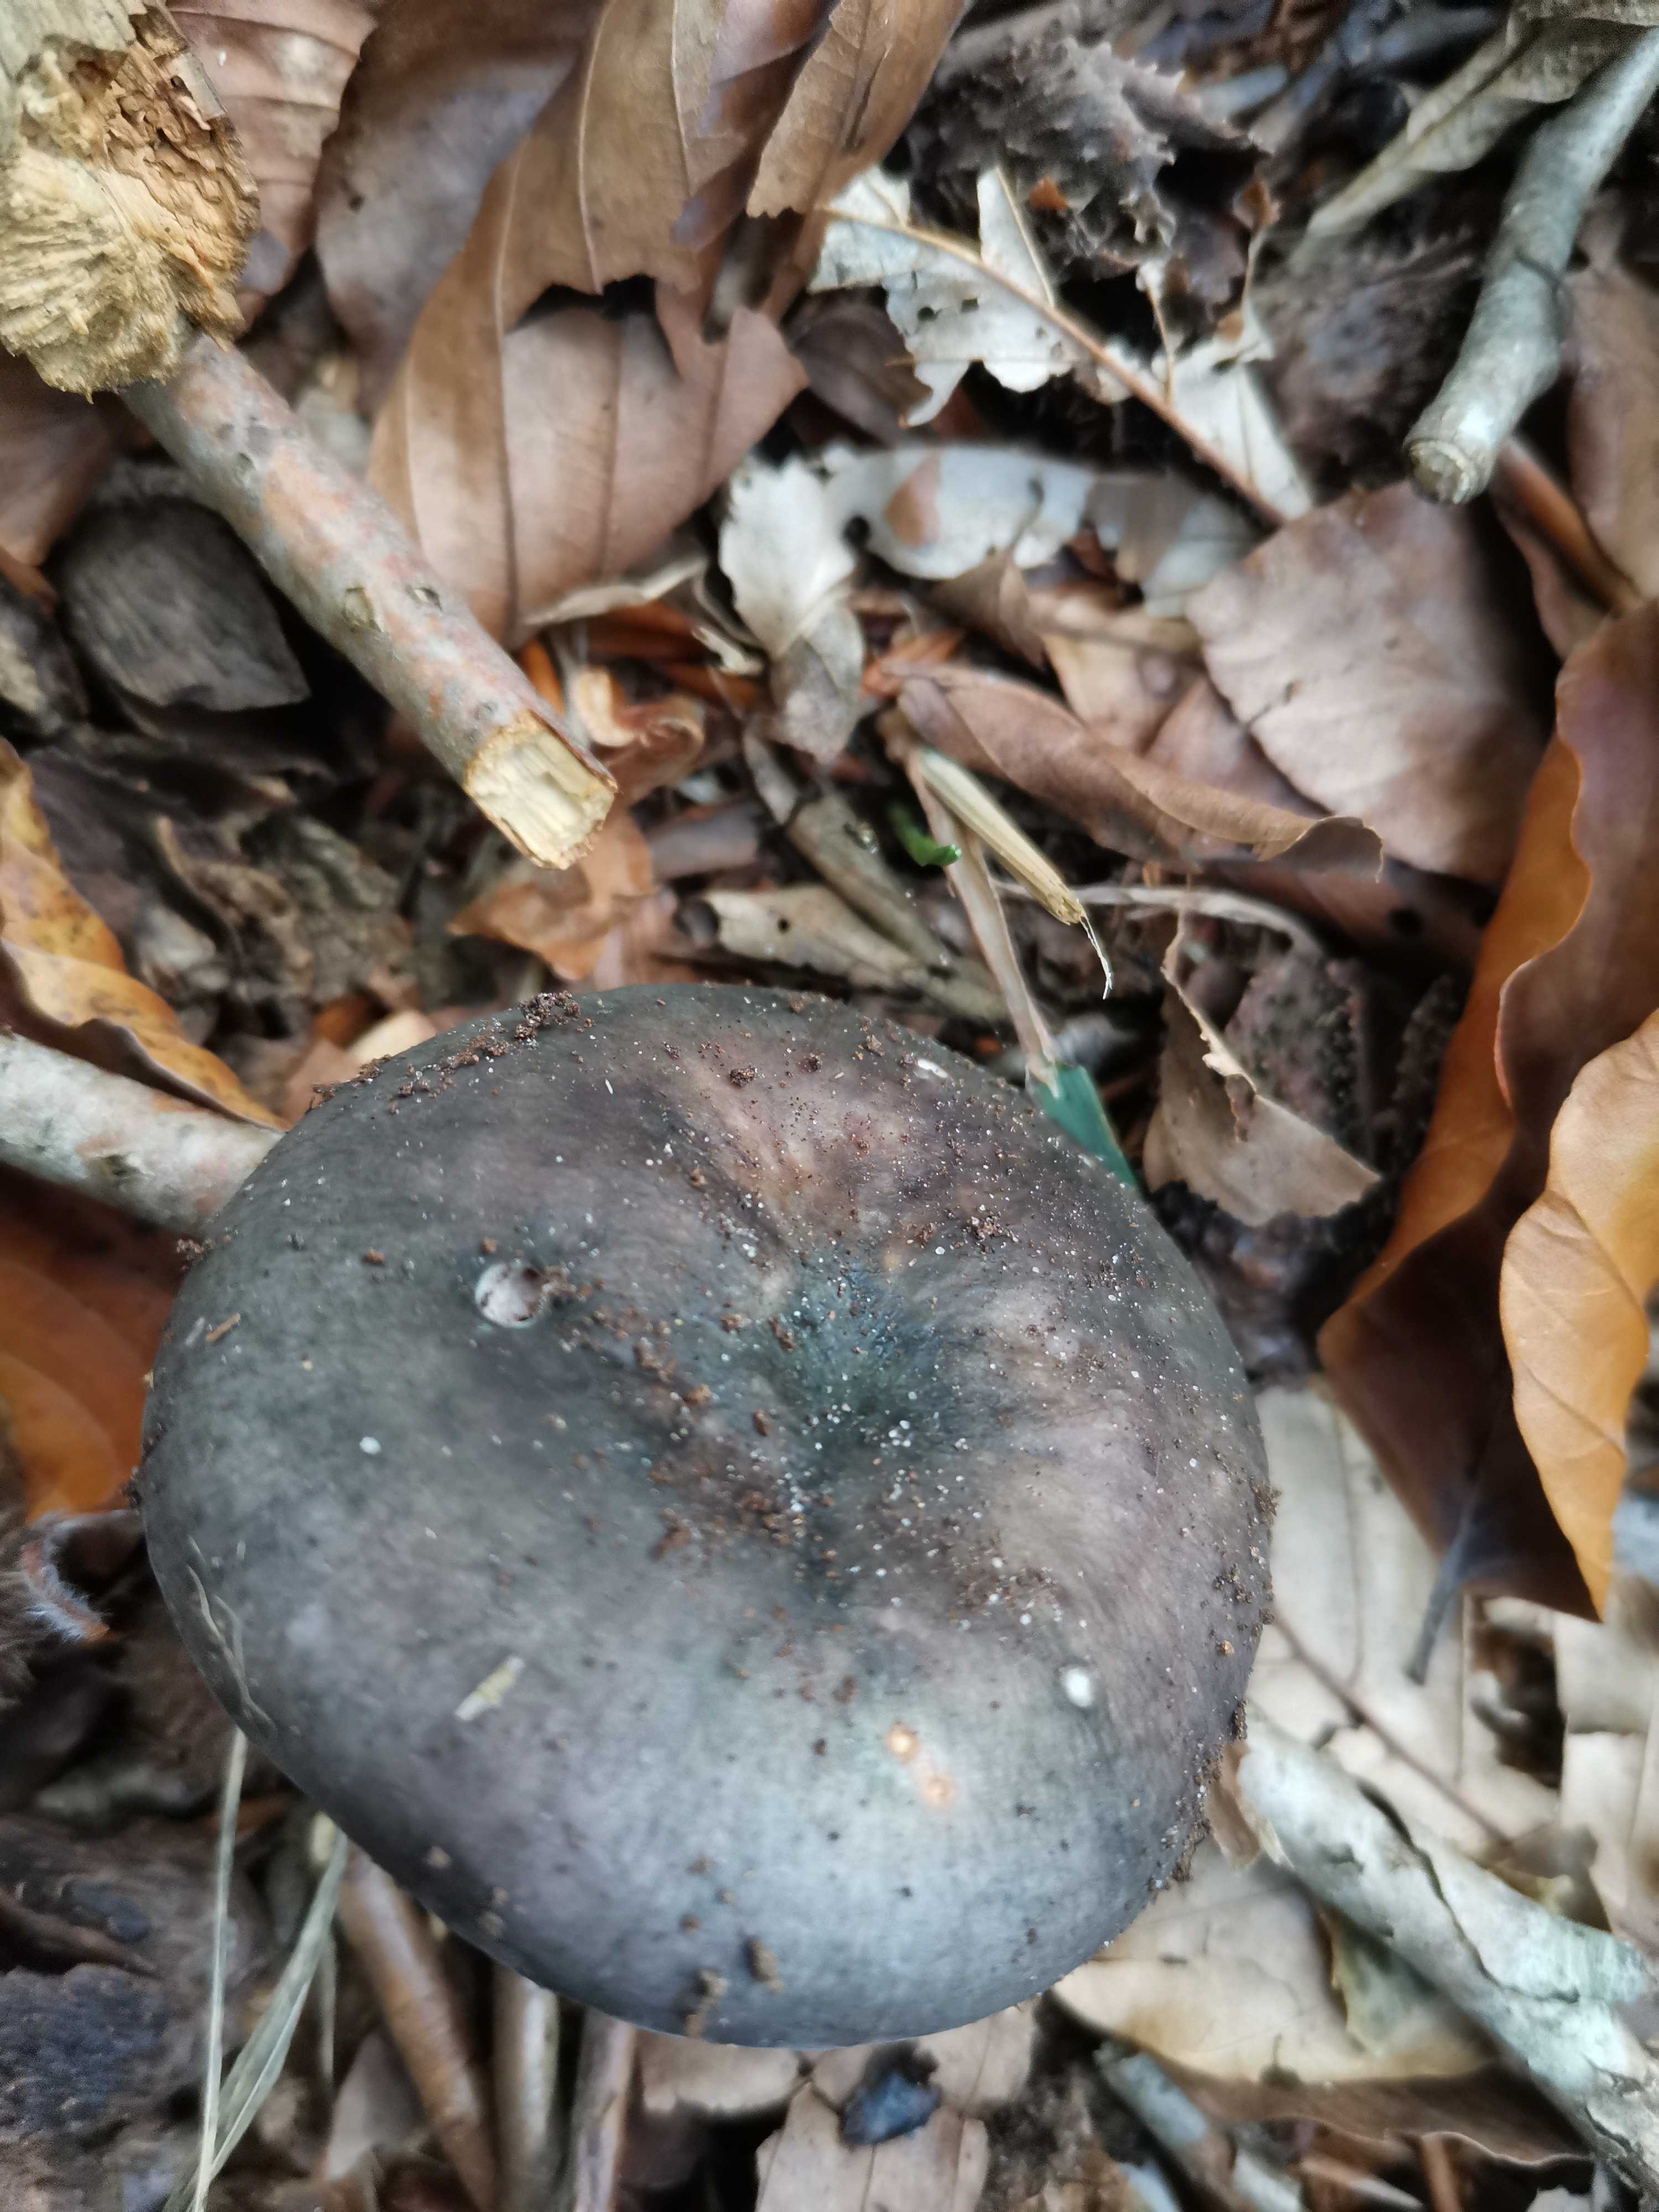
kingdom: Fungi
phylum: Basidiomycota
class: Agaricomycetes
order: Russulales
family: Russulaceae
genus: Russula
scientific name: Russula
